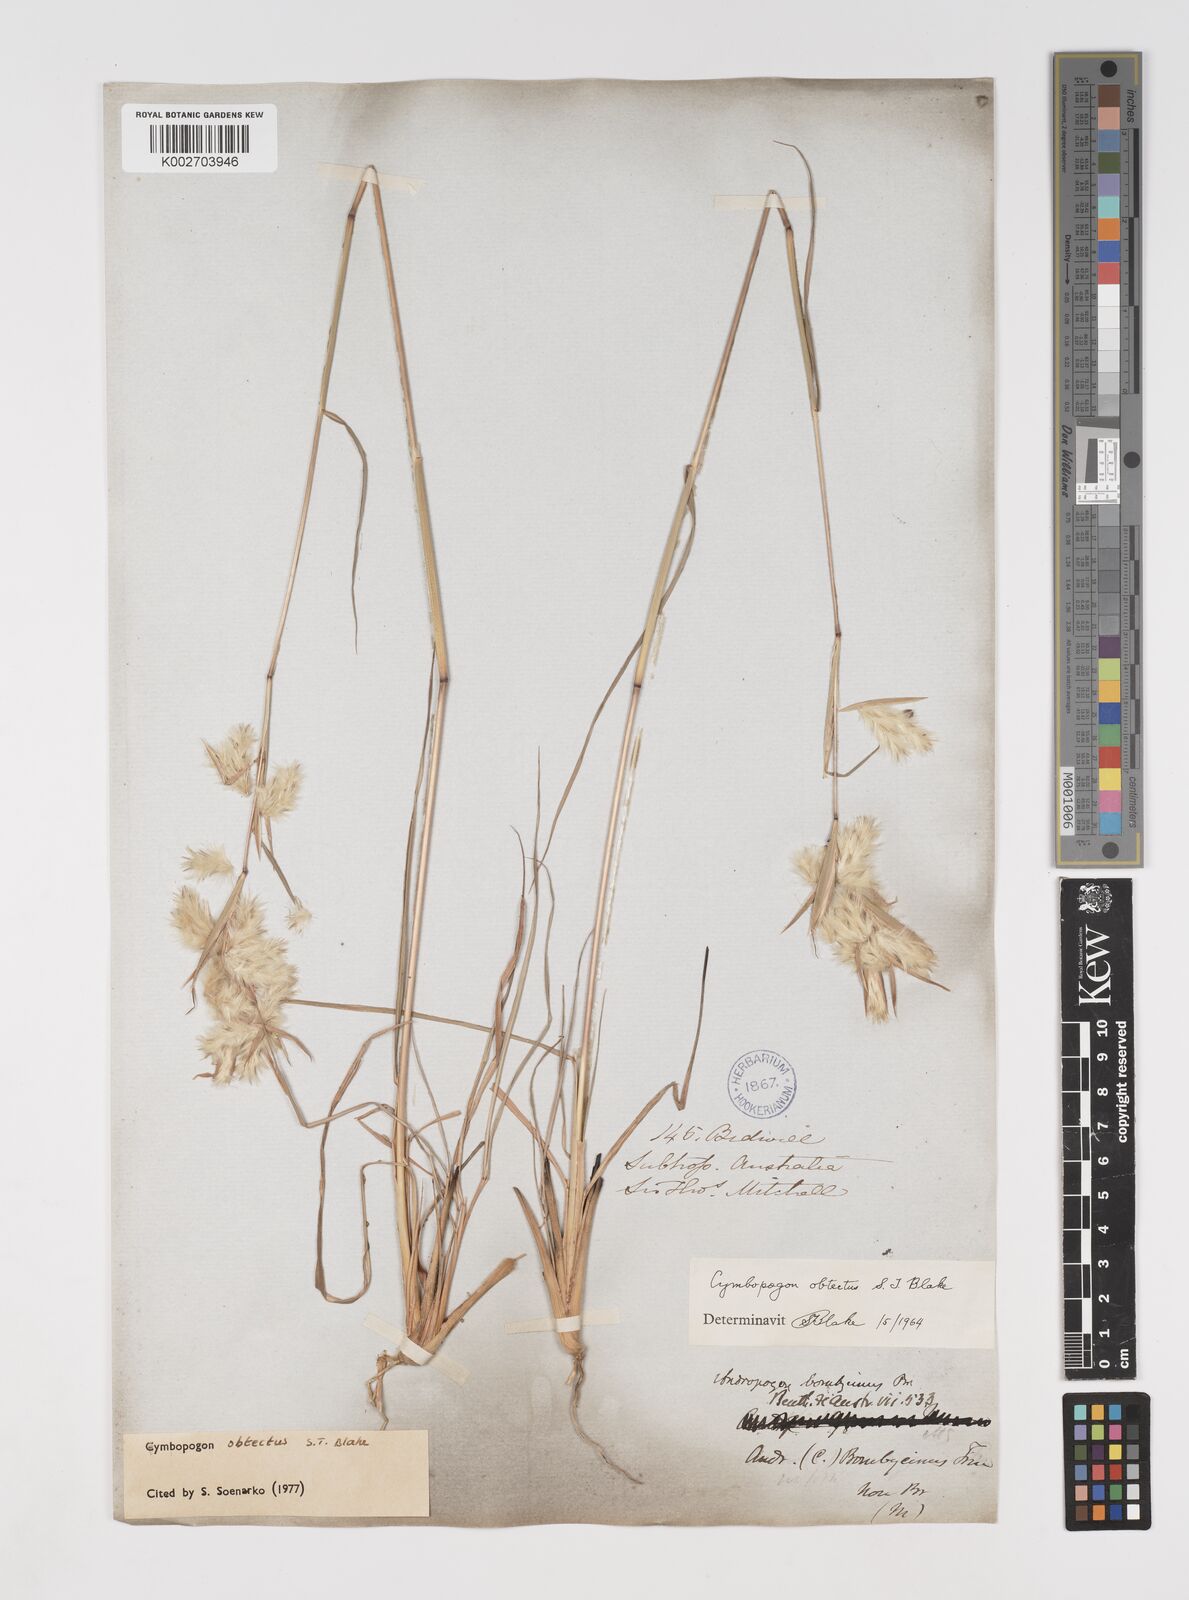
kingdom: Plantae
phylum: Tracheophyta
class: Liliopsida
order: Poales
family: Poaceae
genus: Cymbopogon
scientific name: Cymbopogon obtectus
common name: Silky heads
